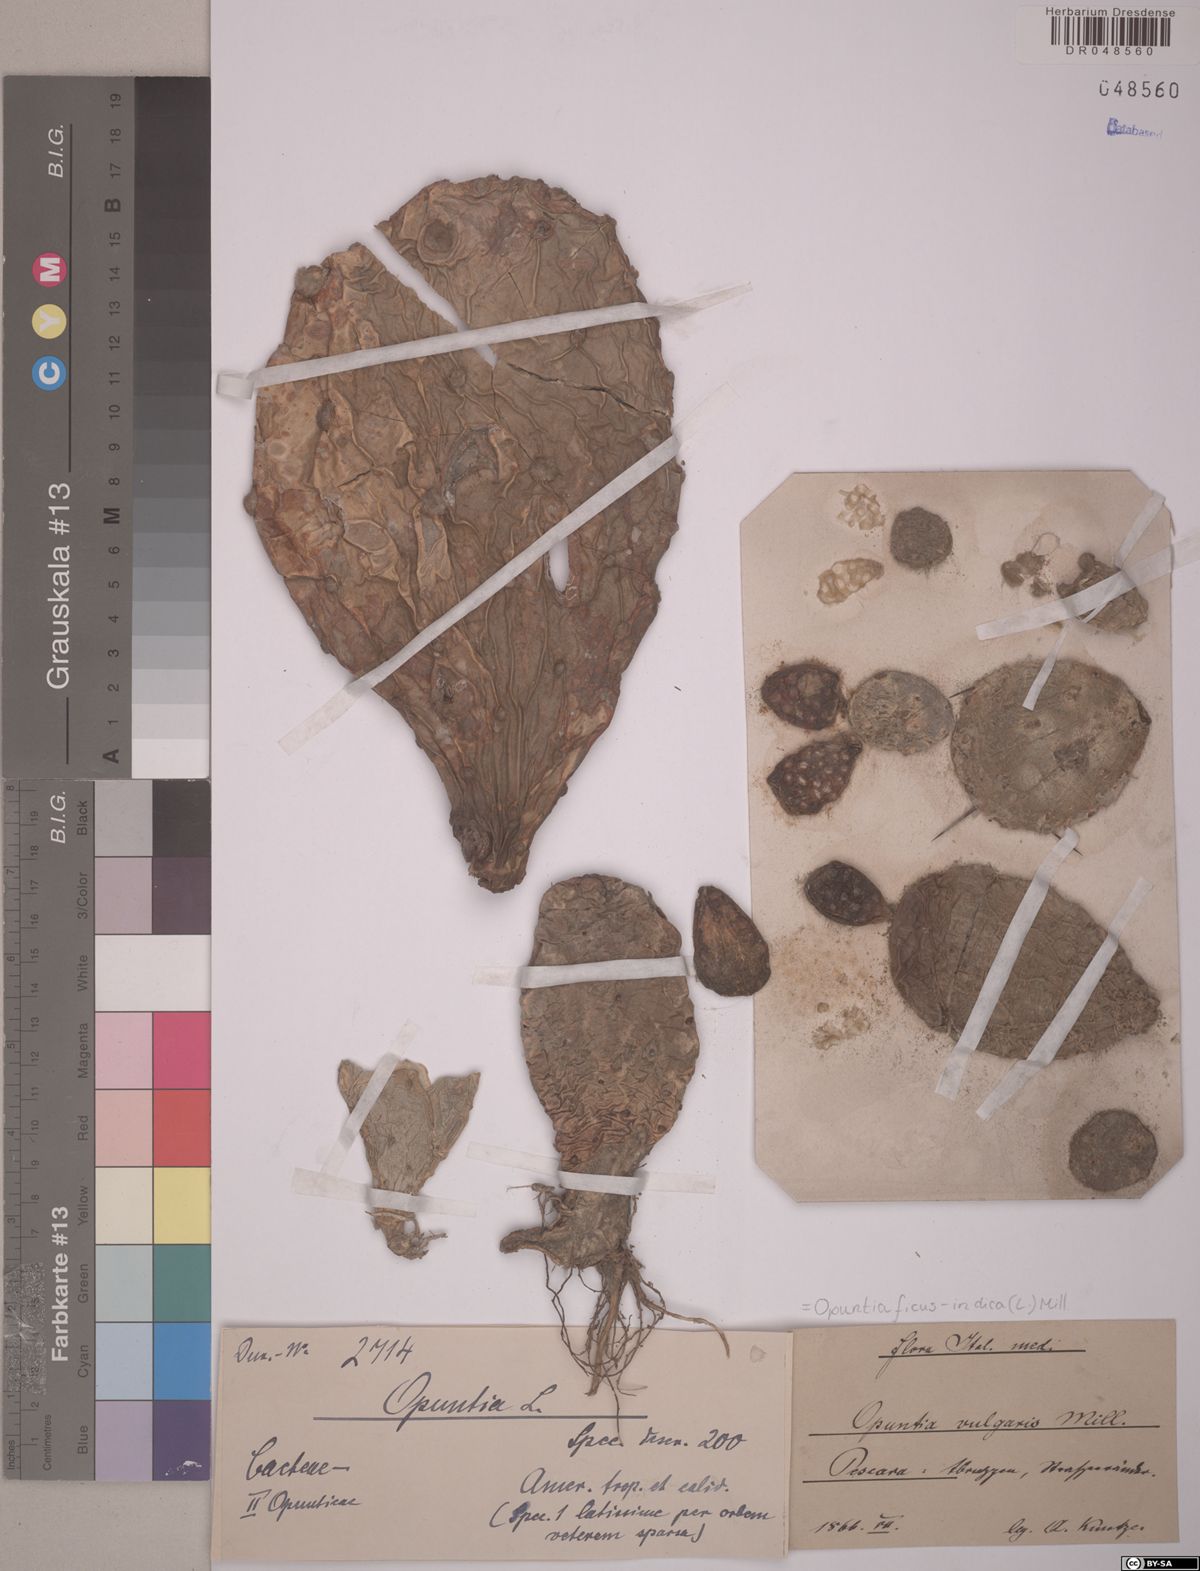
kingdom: Plantae
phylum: Tracheophyta
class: Magnoliopsida
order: Caryophyllales
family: Cactaceae
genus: Opuntia
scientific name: Opuntia ficus-indica
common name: Barbary fig
